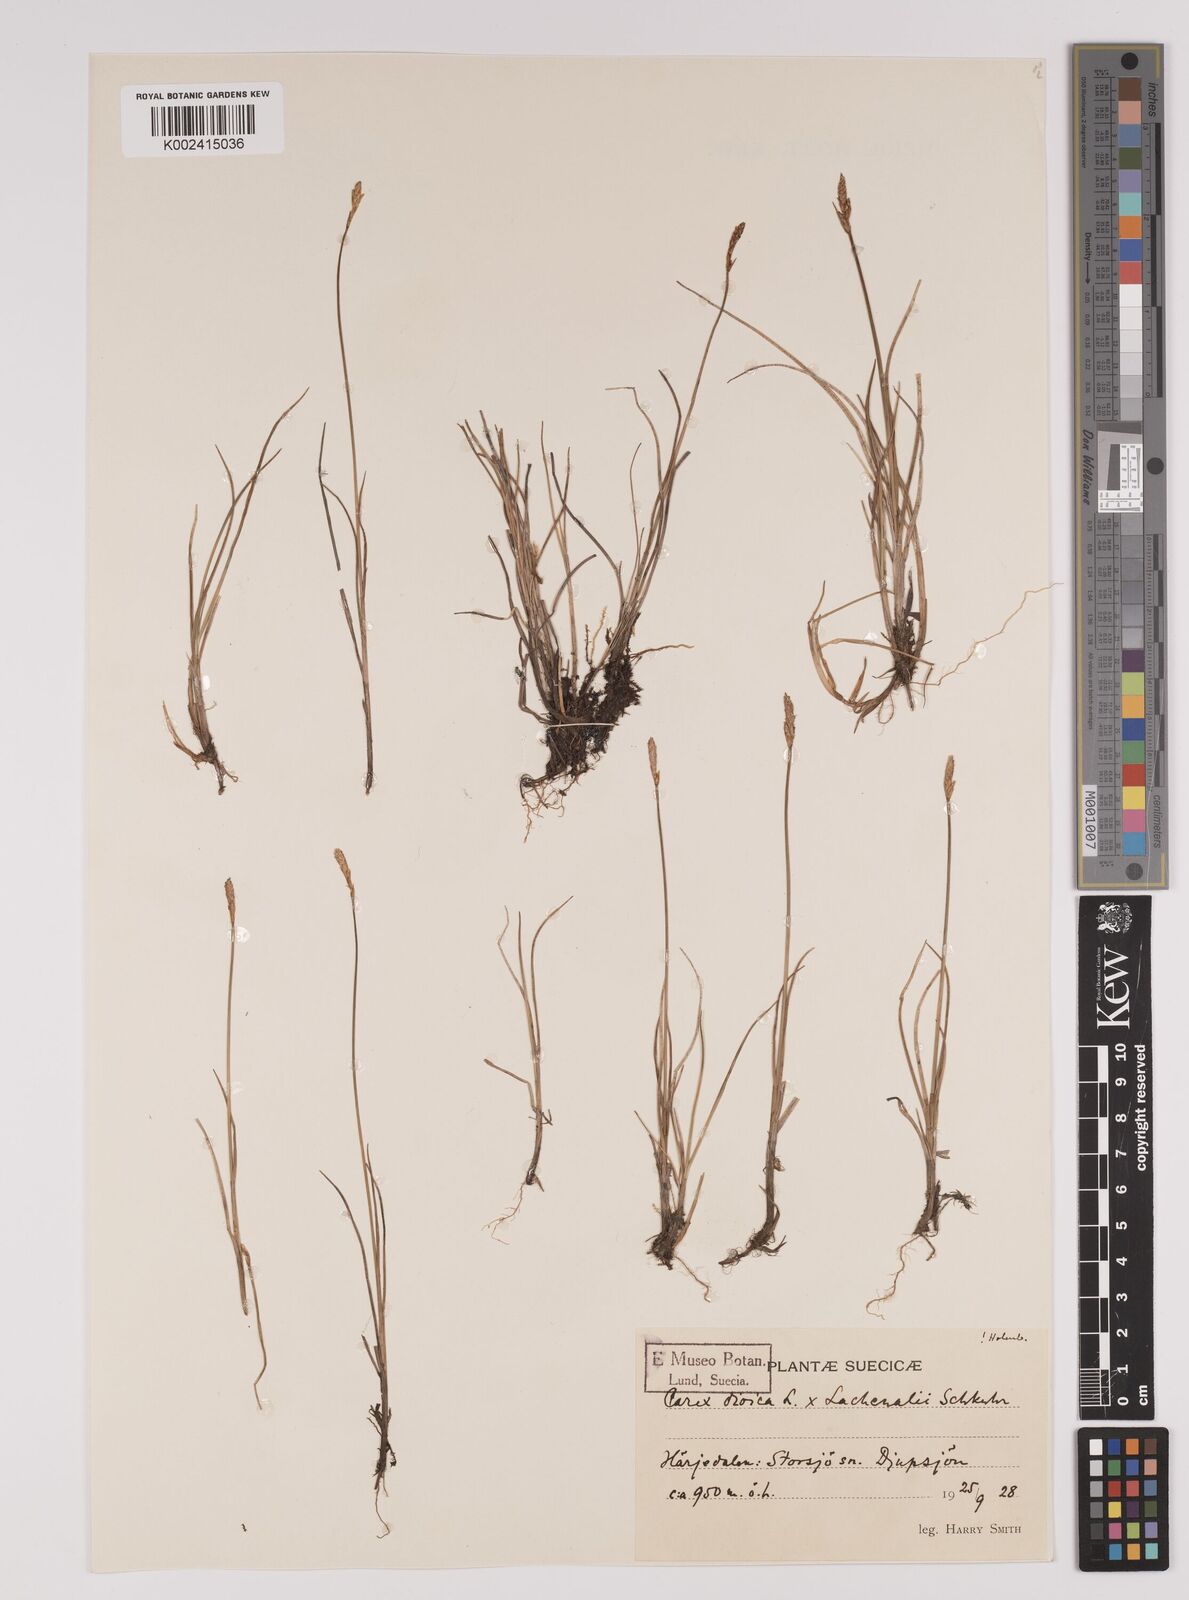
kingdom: Plantae
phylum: Tracheophyta
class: Liliopsida
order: Poales
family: Cyperaceae
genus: Carex
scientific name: Carex dioica
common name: Dioecious sedge
